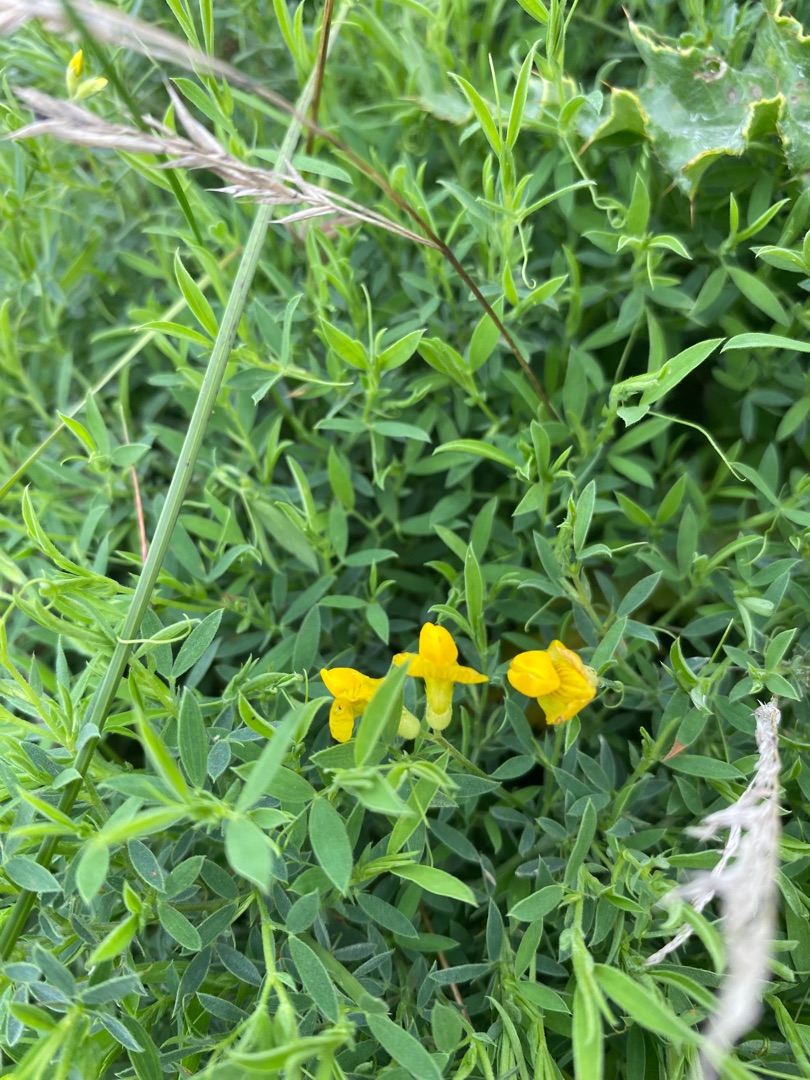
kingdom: Plantae
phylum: Tracheophyta
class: Magnoliopsida
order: Fabales
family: Fabaceae
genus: Lathyrus
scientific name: Lathyrus pratensis
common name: Gul fladbælg
